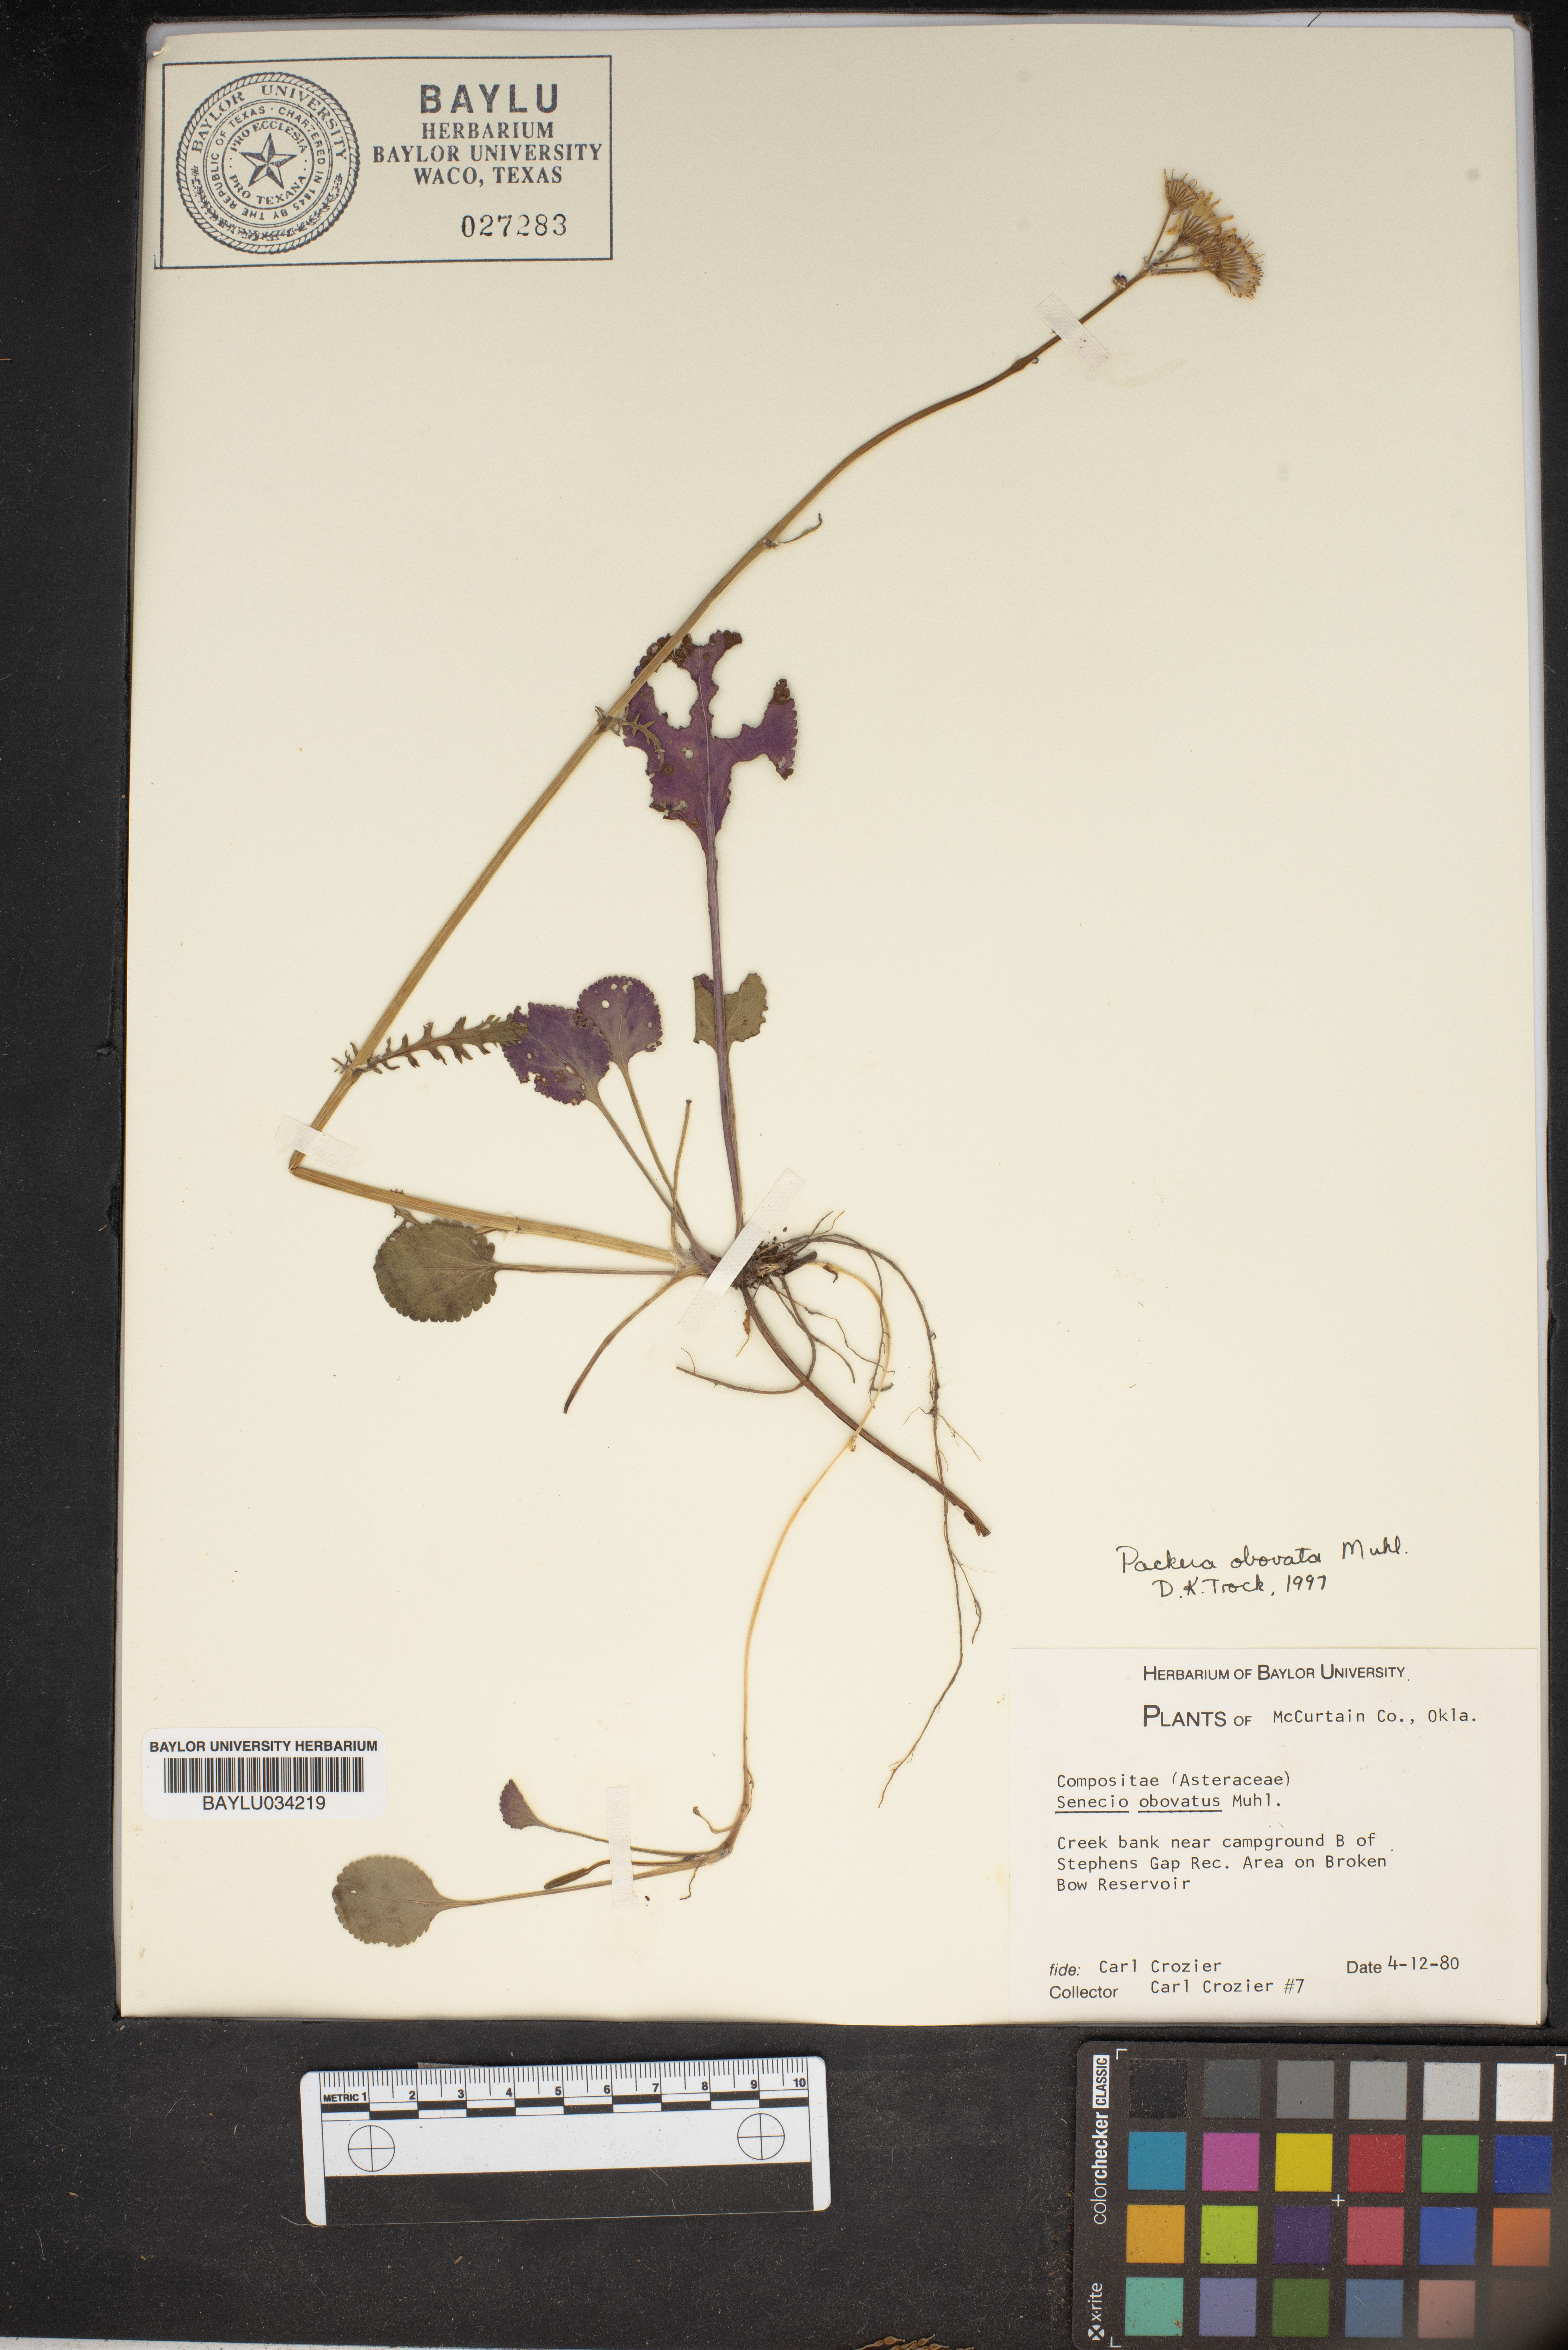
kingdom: Plantae
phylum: Tracheophyta
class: Magnoliopsida
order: Asterales
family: Asteraceae
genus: Senecio
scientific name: Senecio provincialis
